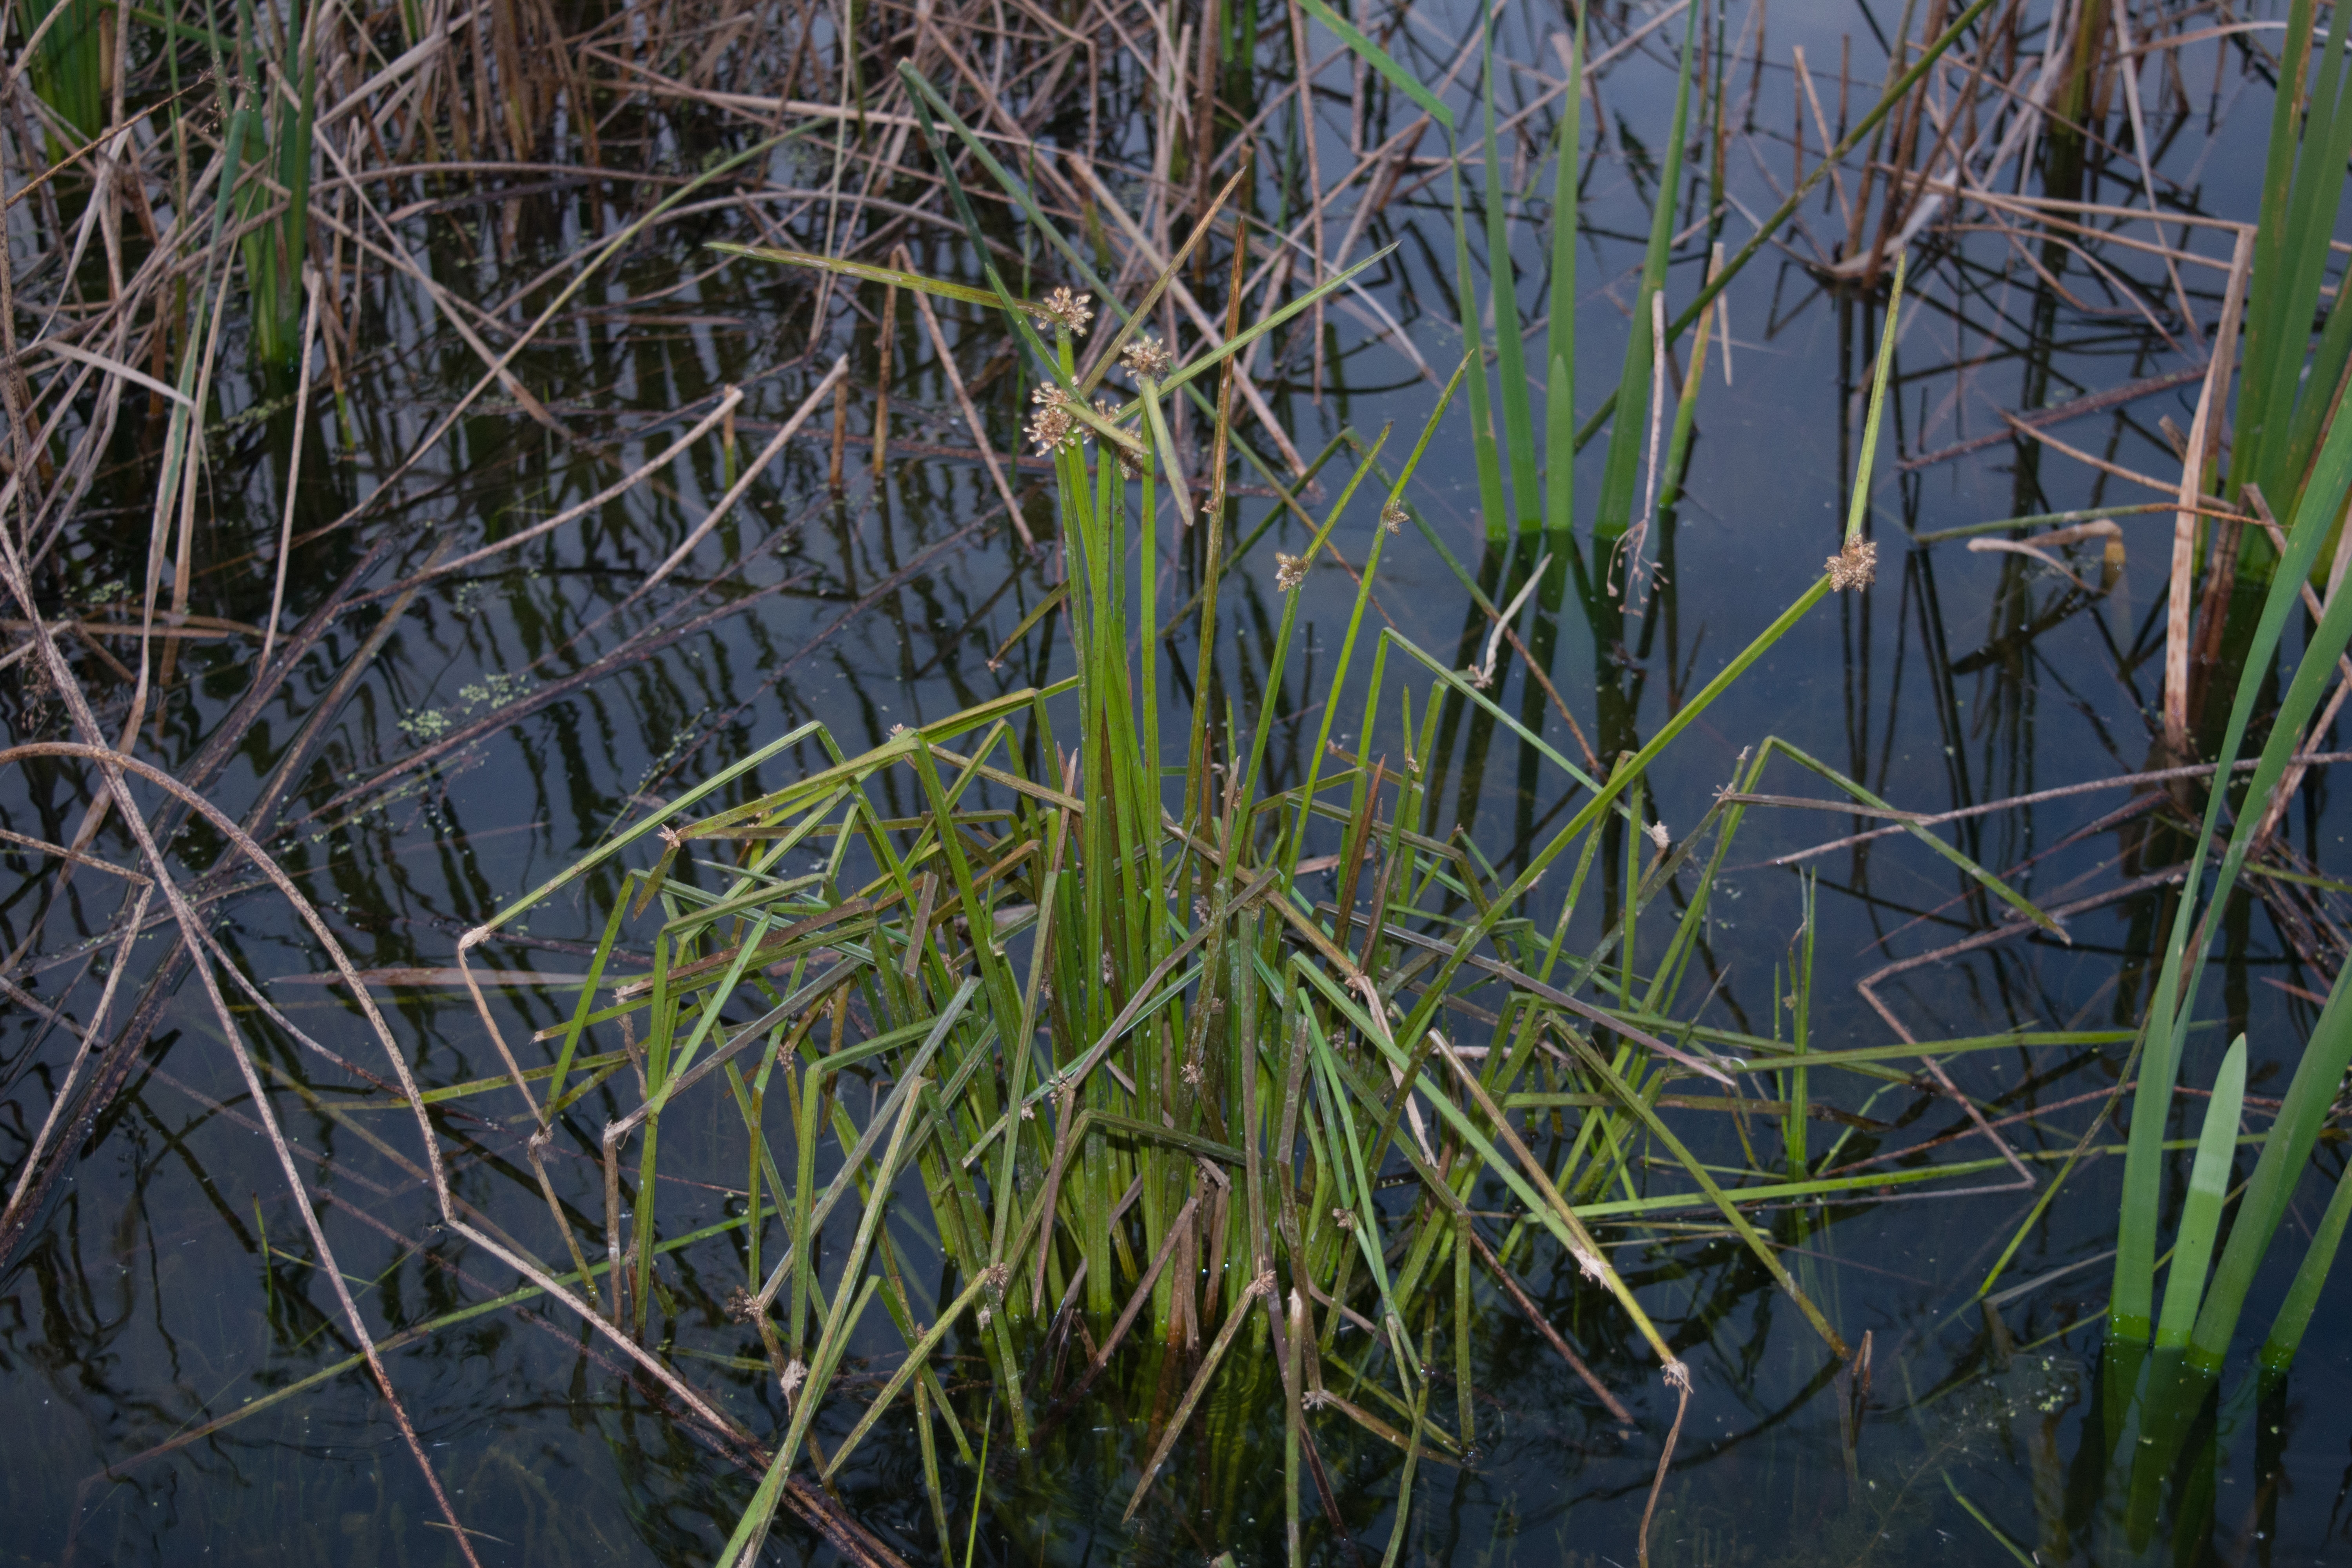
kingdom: Plantae
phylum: Tracheophyta
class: Liliopsida
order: Poales
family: Cyperaceae
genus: Schoenoplectiella
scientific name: Schoenoplectiella mucronata
